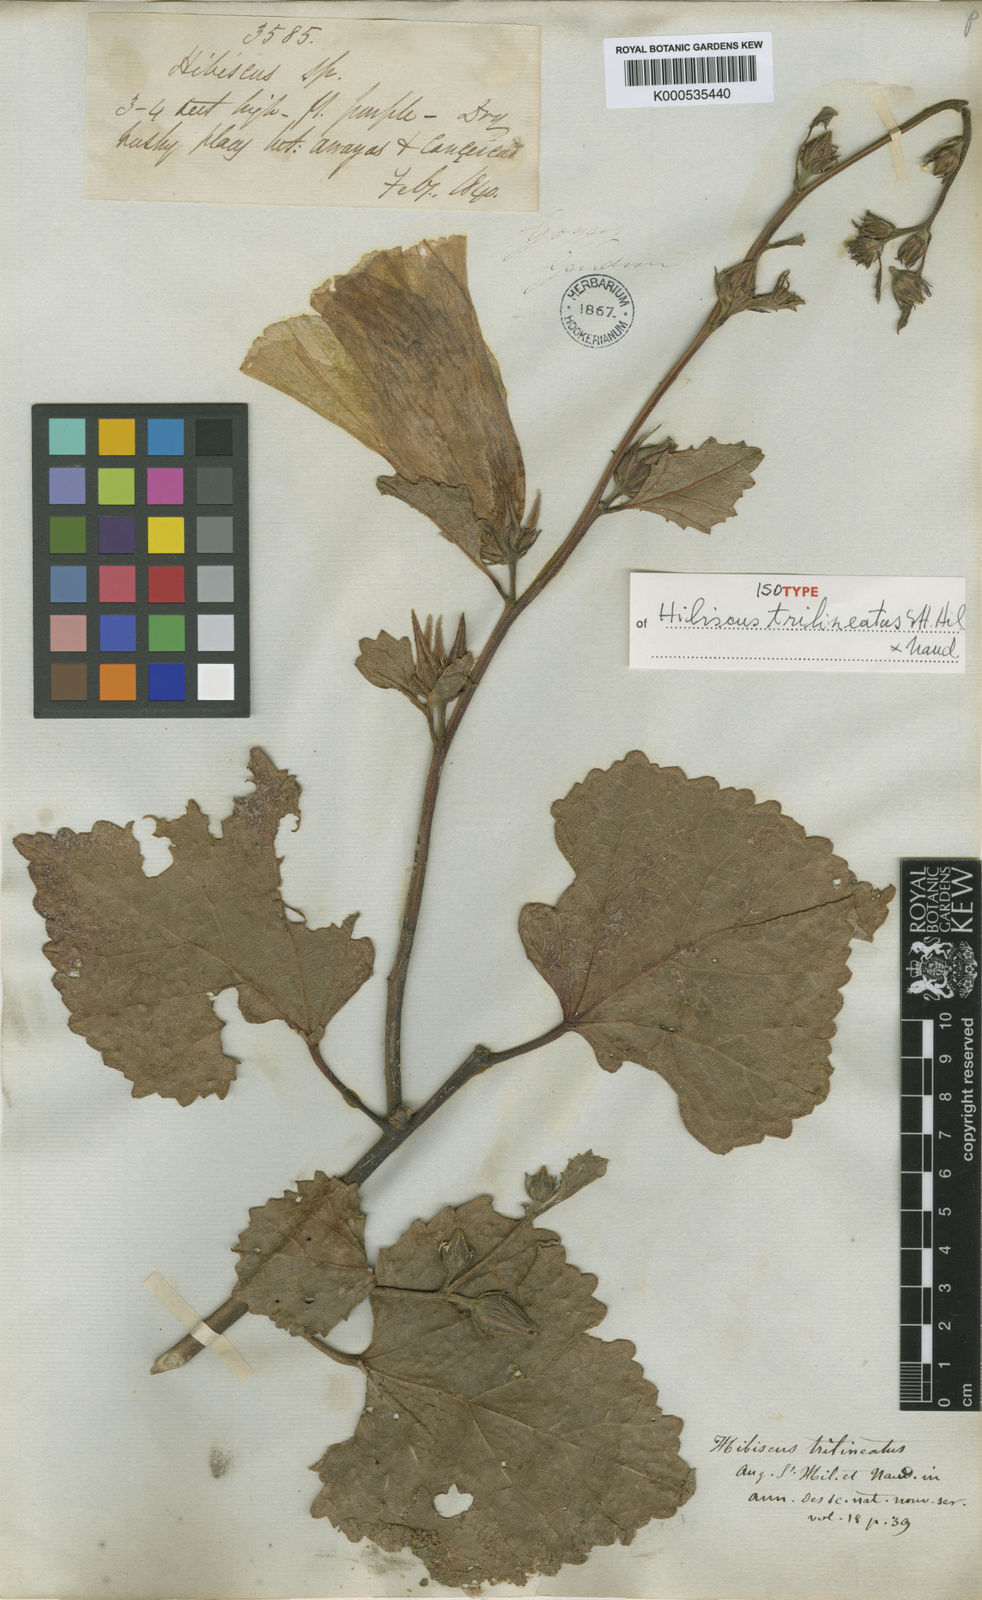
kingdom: Plantae
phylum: Tracheophyta
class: Magnoliopsida
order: Malvales
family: Malvaceae
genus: Hibiscus
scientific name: Hibiscus trilineatus
